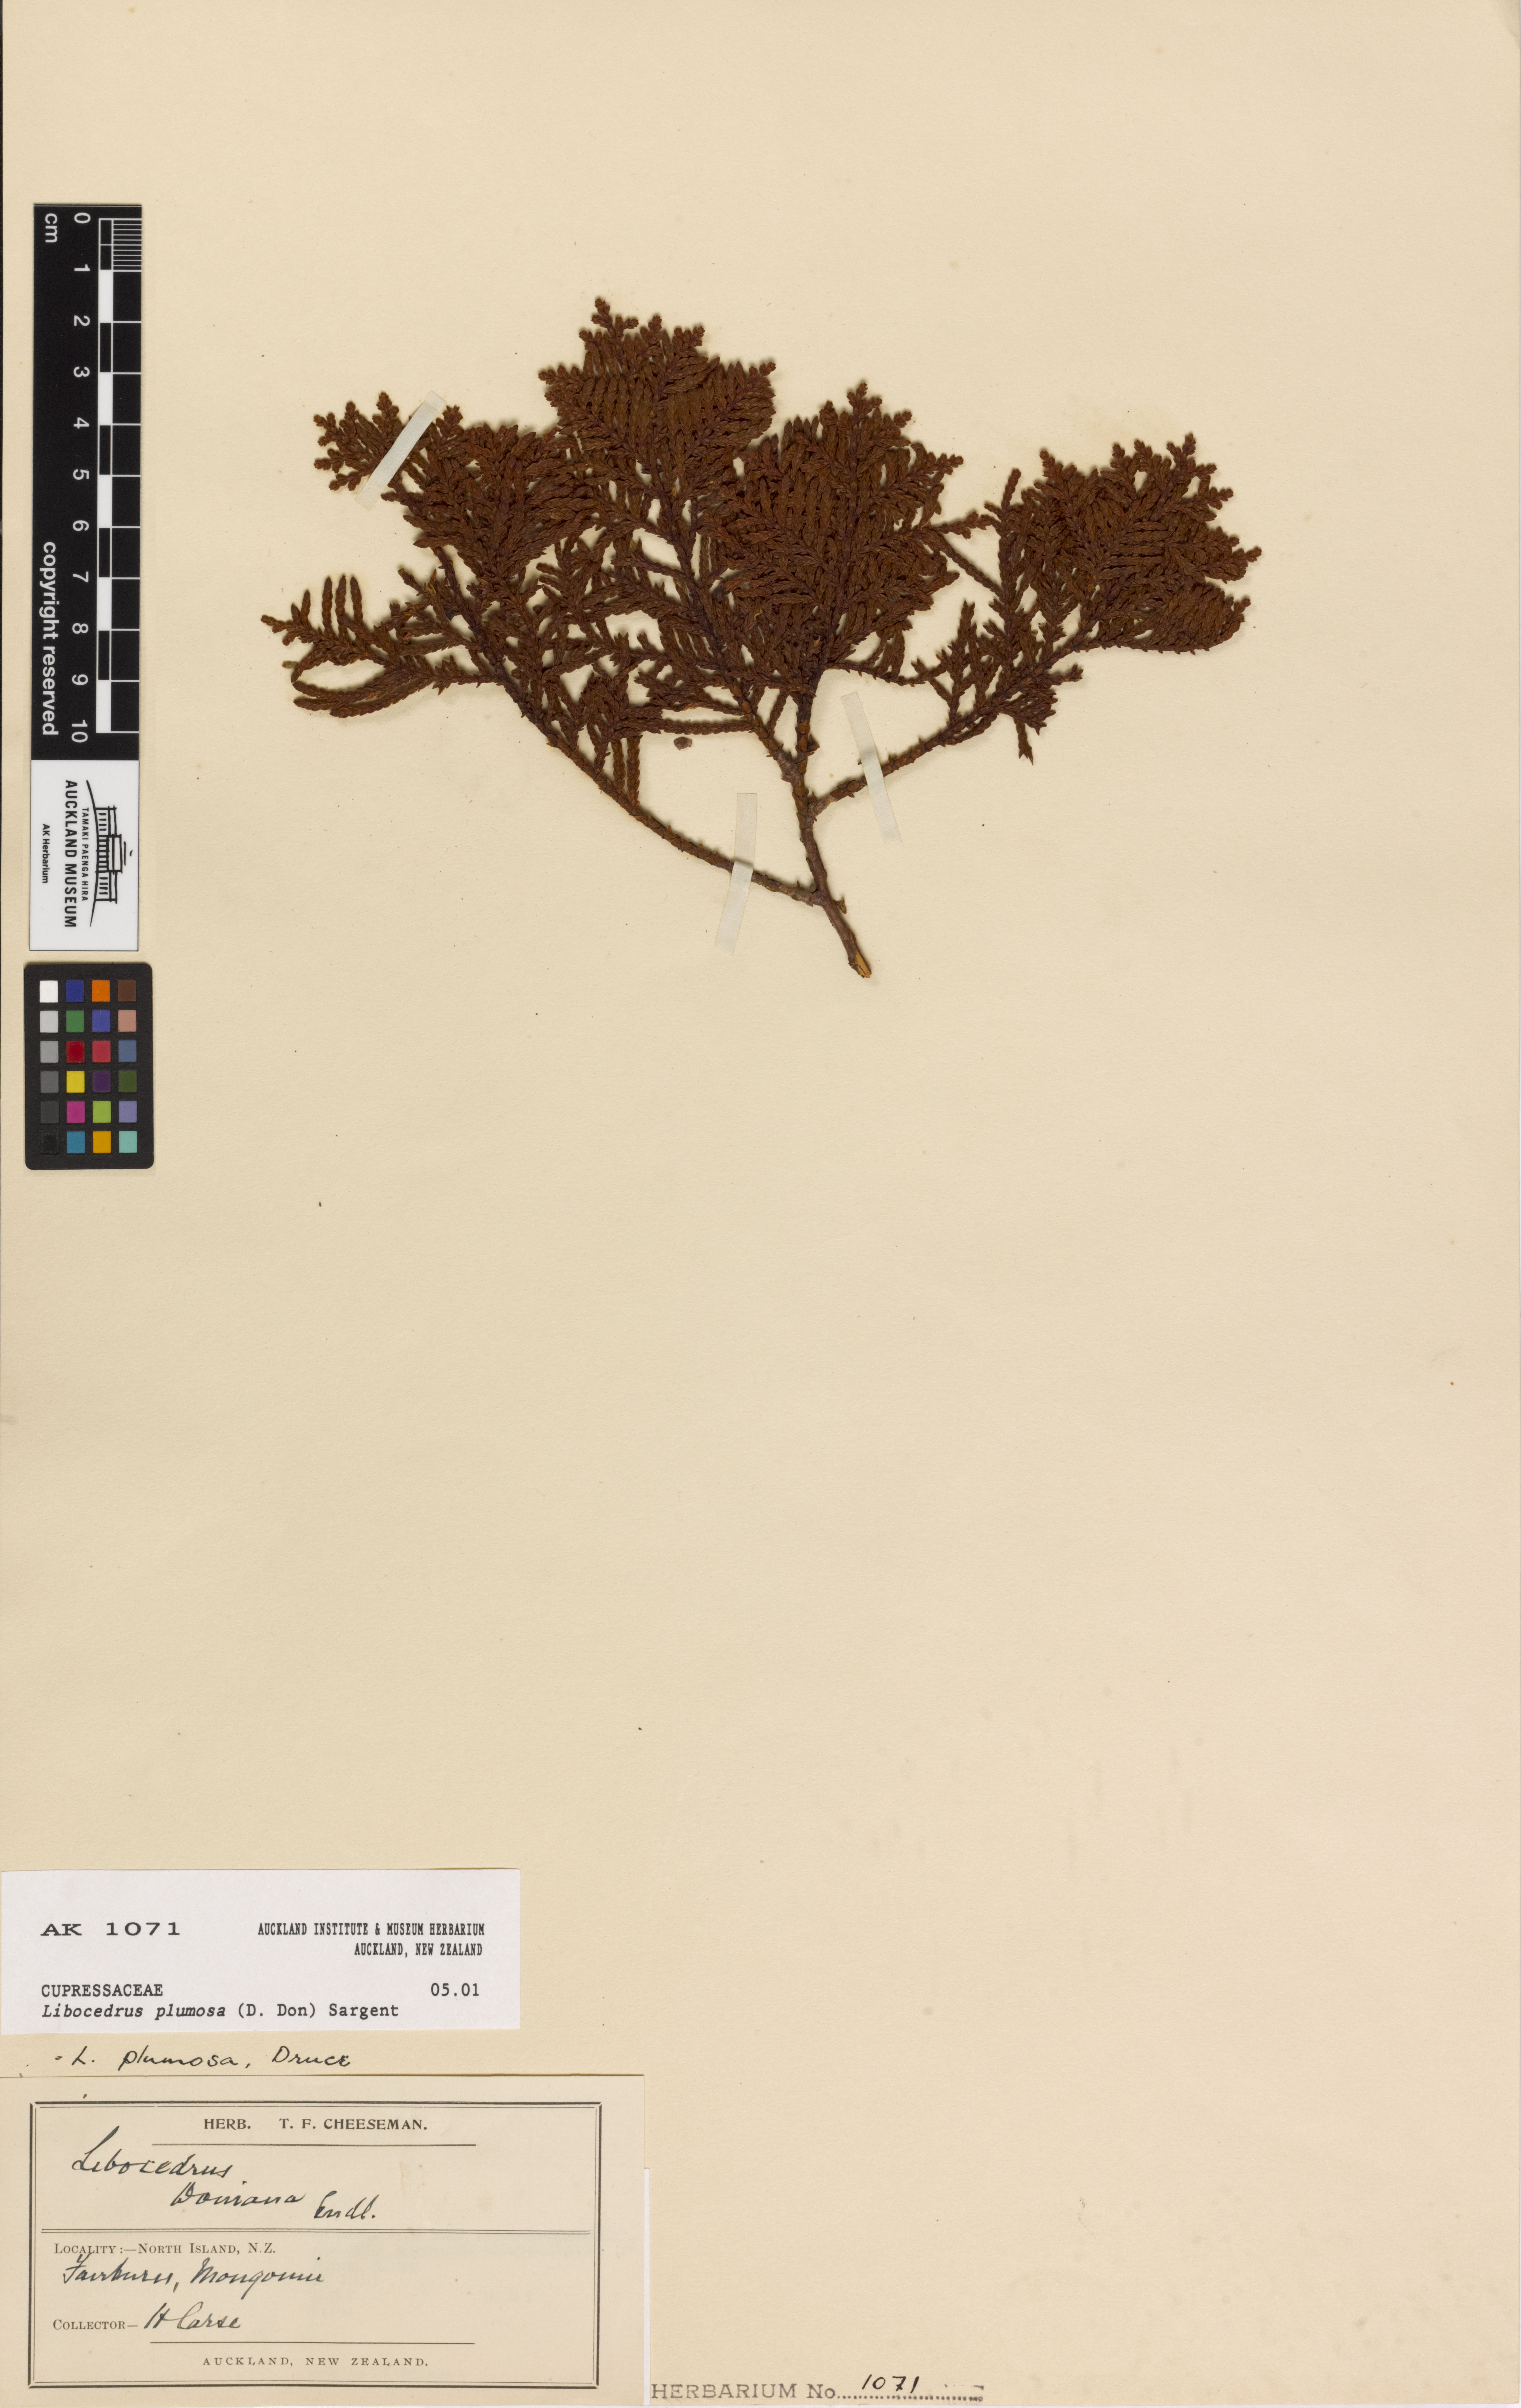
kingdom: Plantae
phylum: Tracheophyta
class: Pinopsida
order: Pinales
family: Cupressaceae
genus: Libocedrus
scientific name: Libocedrus plumosa
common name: New zealand cedar
